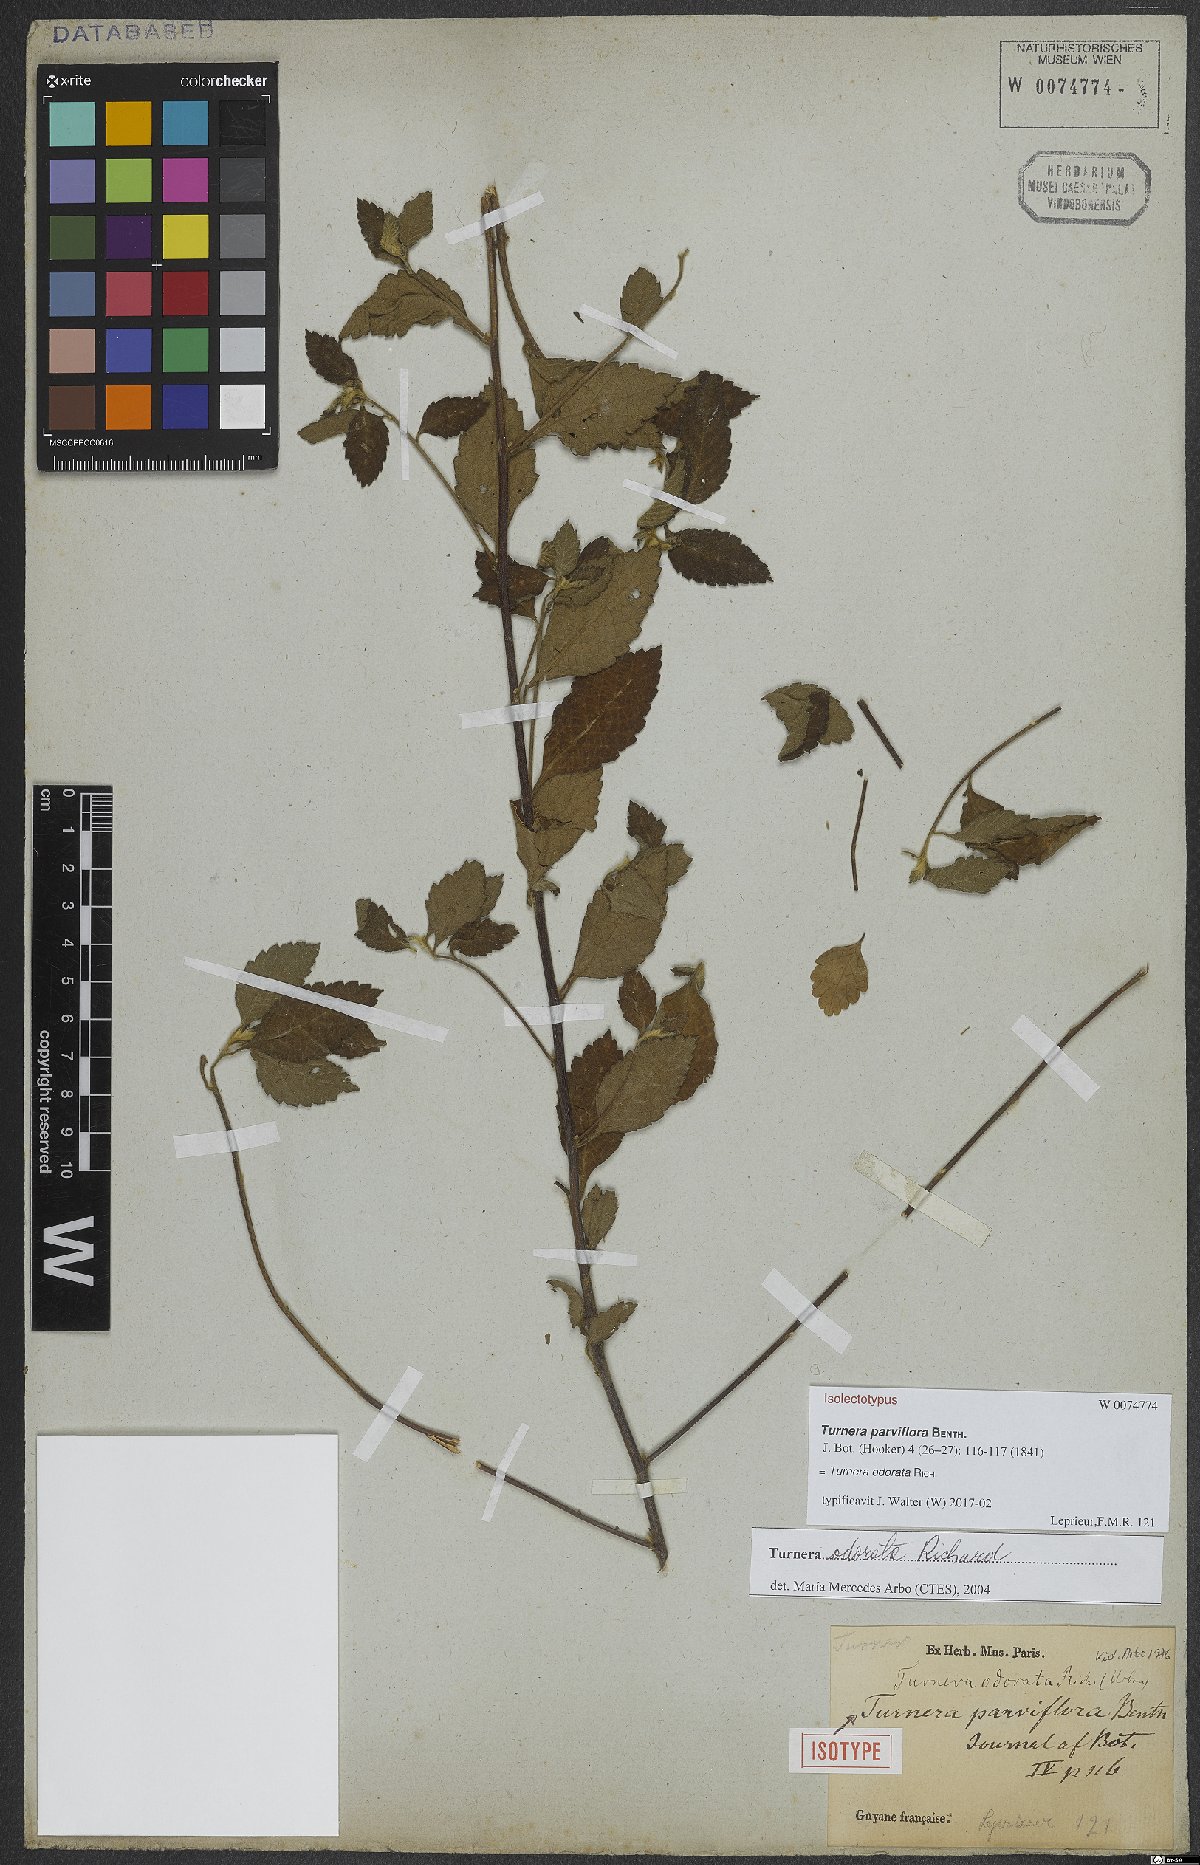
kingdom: Plantae
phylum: Tracheophyta
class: Magnoliopsida
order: Malpighiales
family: Turneraceae
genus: Turnera
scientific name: Turnera odorata
